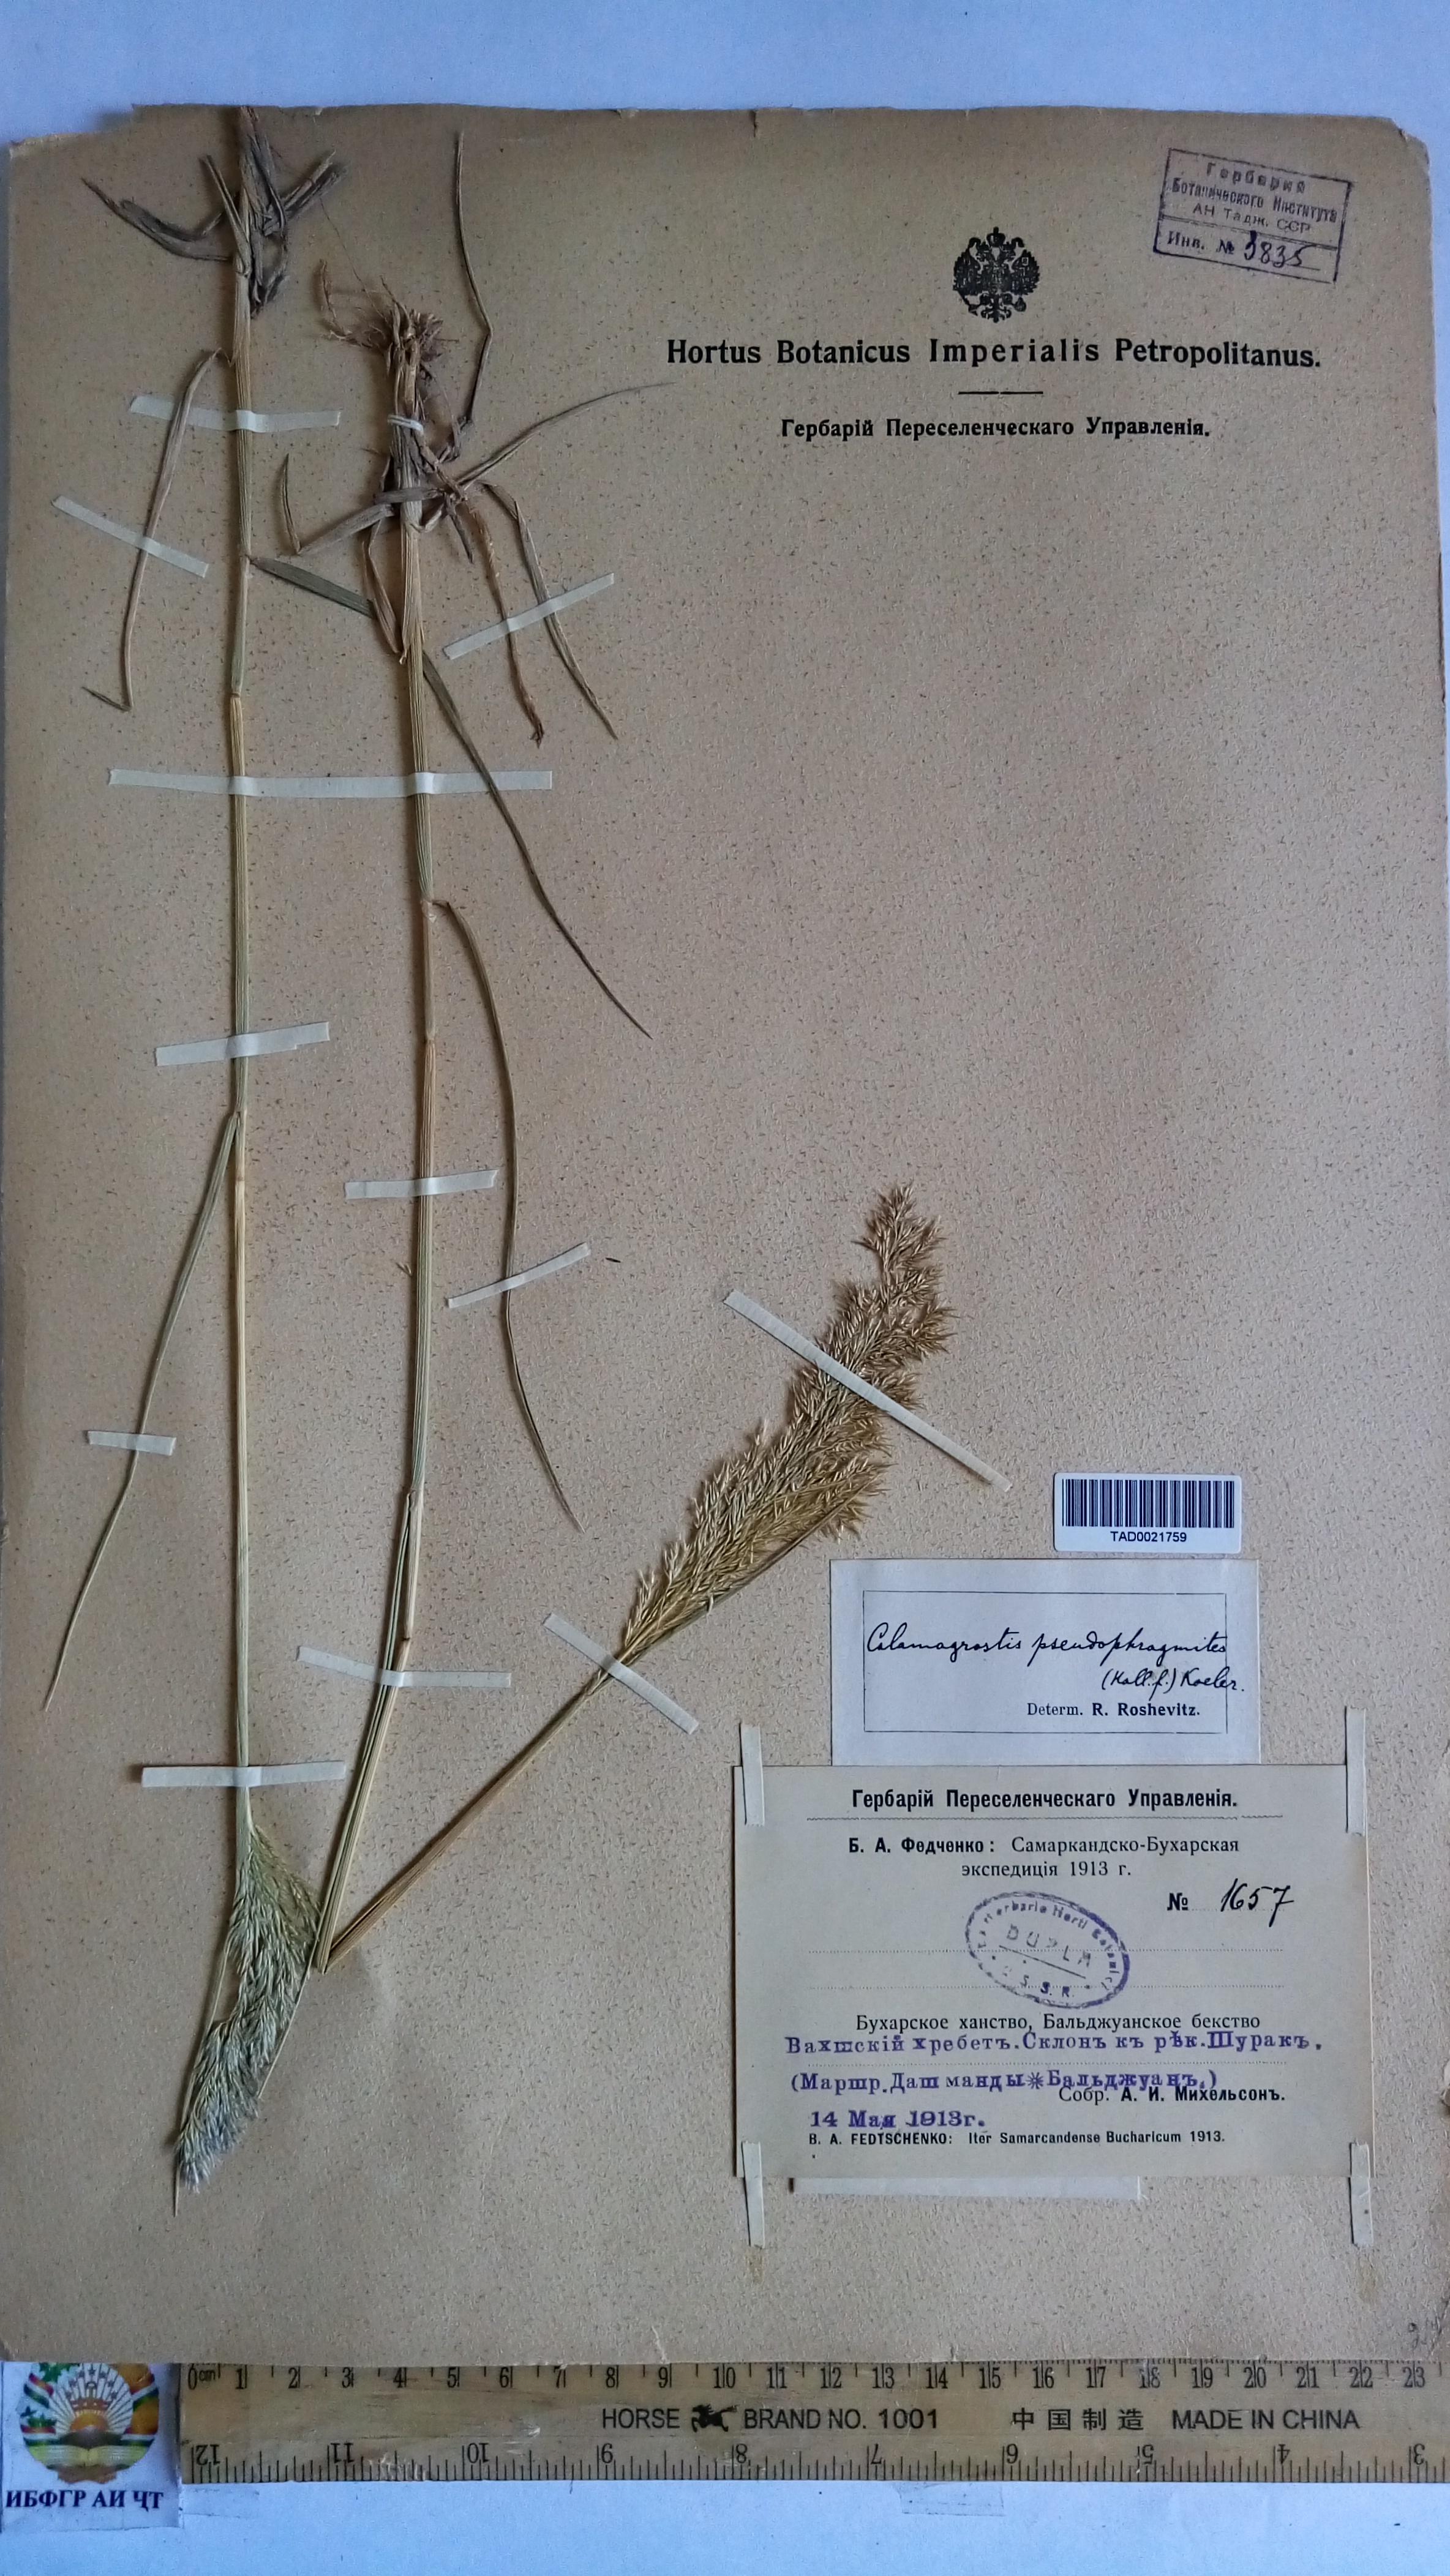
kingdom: Plantae
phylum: Tracheophyta
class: Liliopsida
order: Poales
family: Poaceae
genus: Calamagrostis
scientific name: Calamagrostis pseudophragmites
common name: Coastal small-reed
